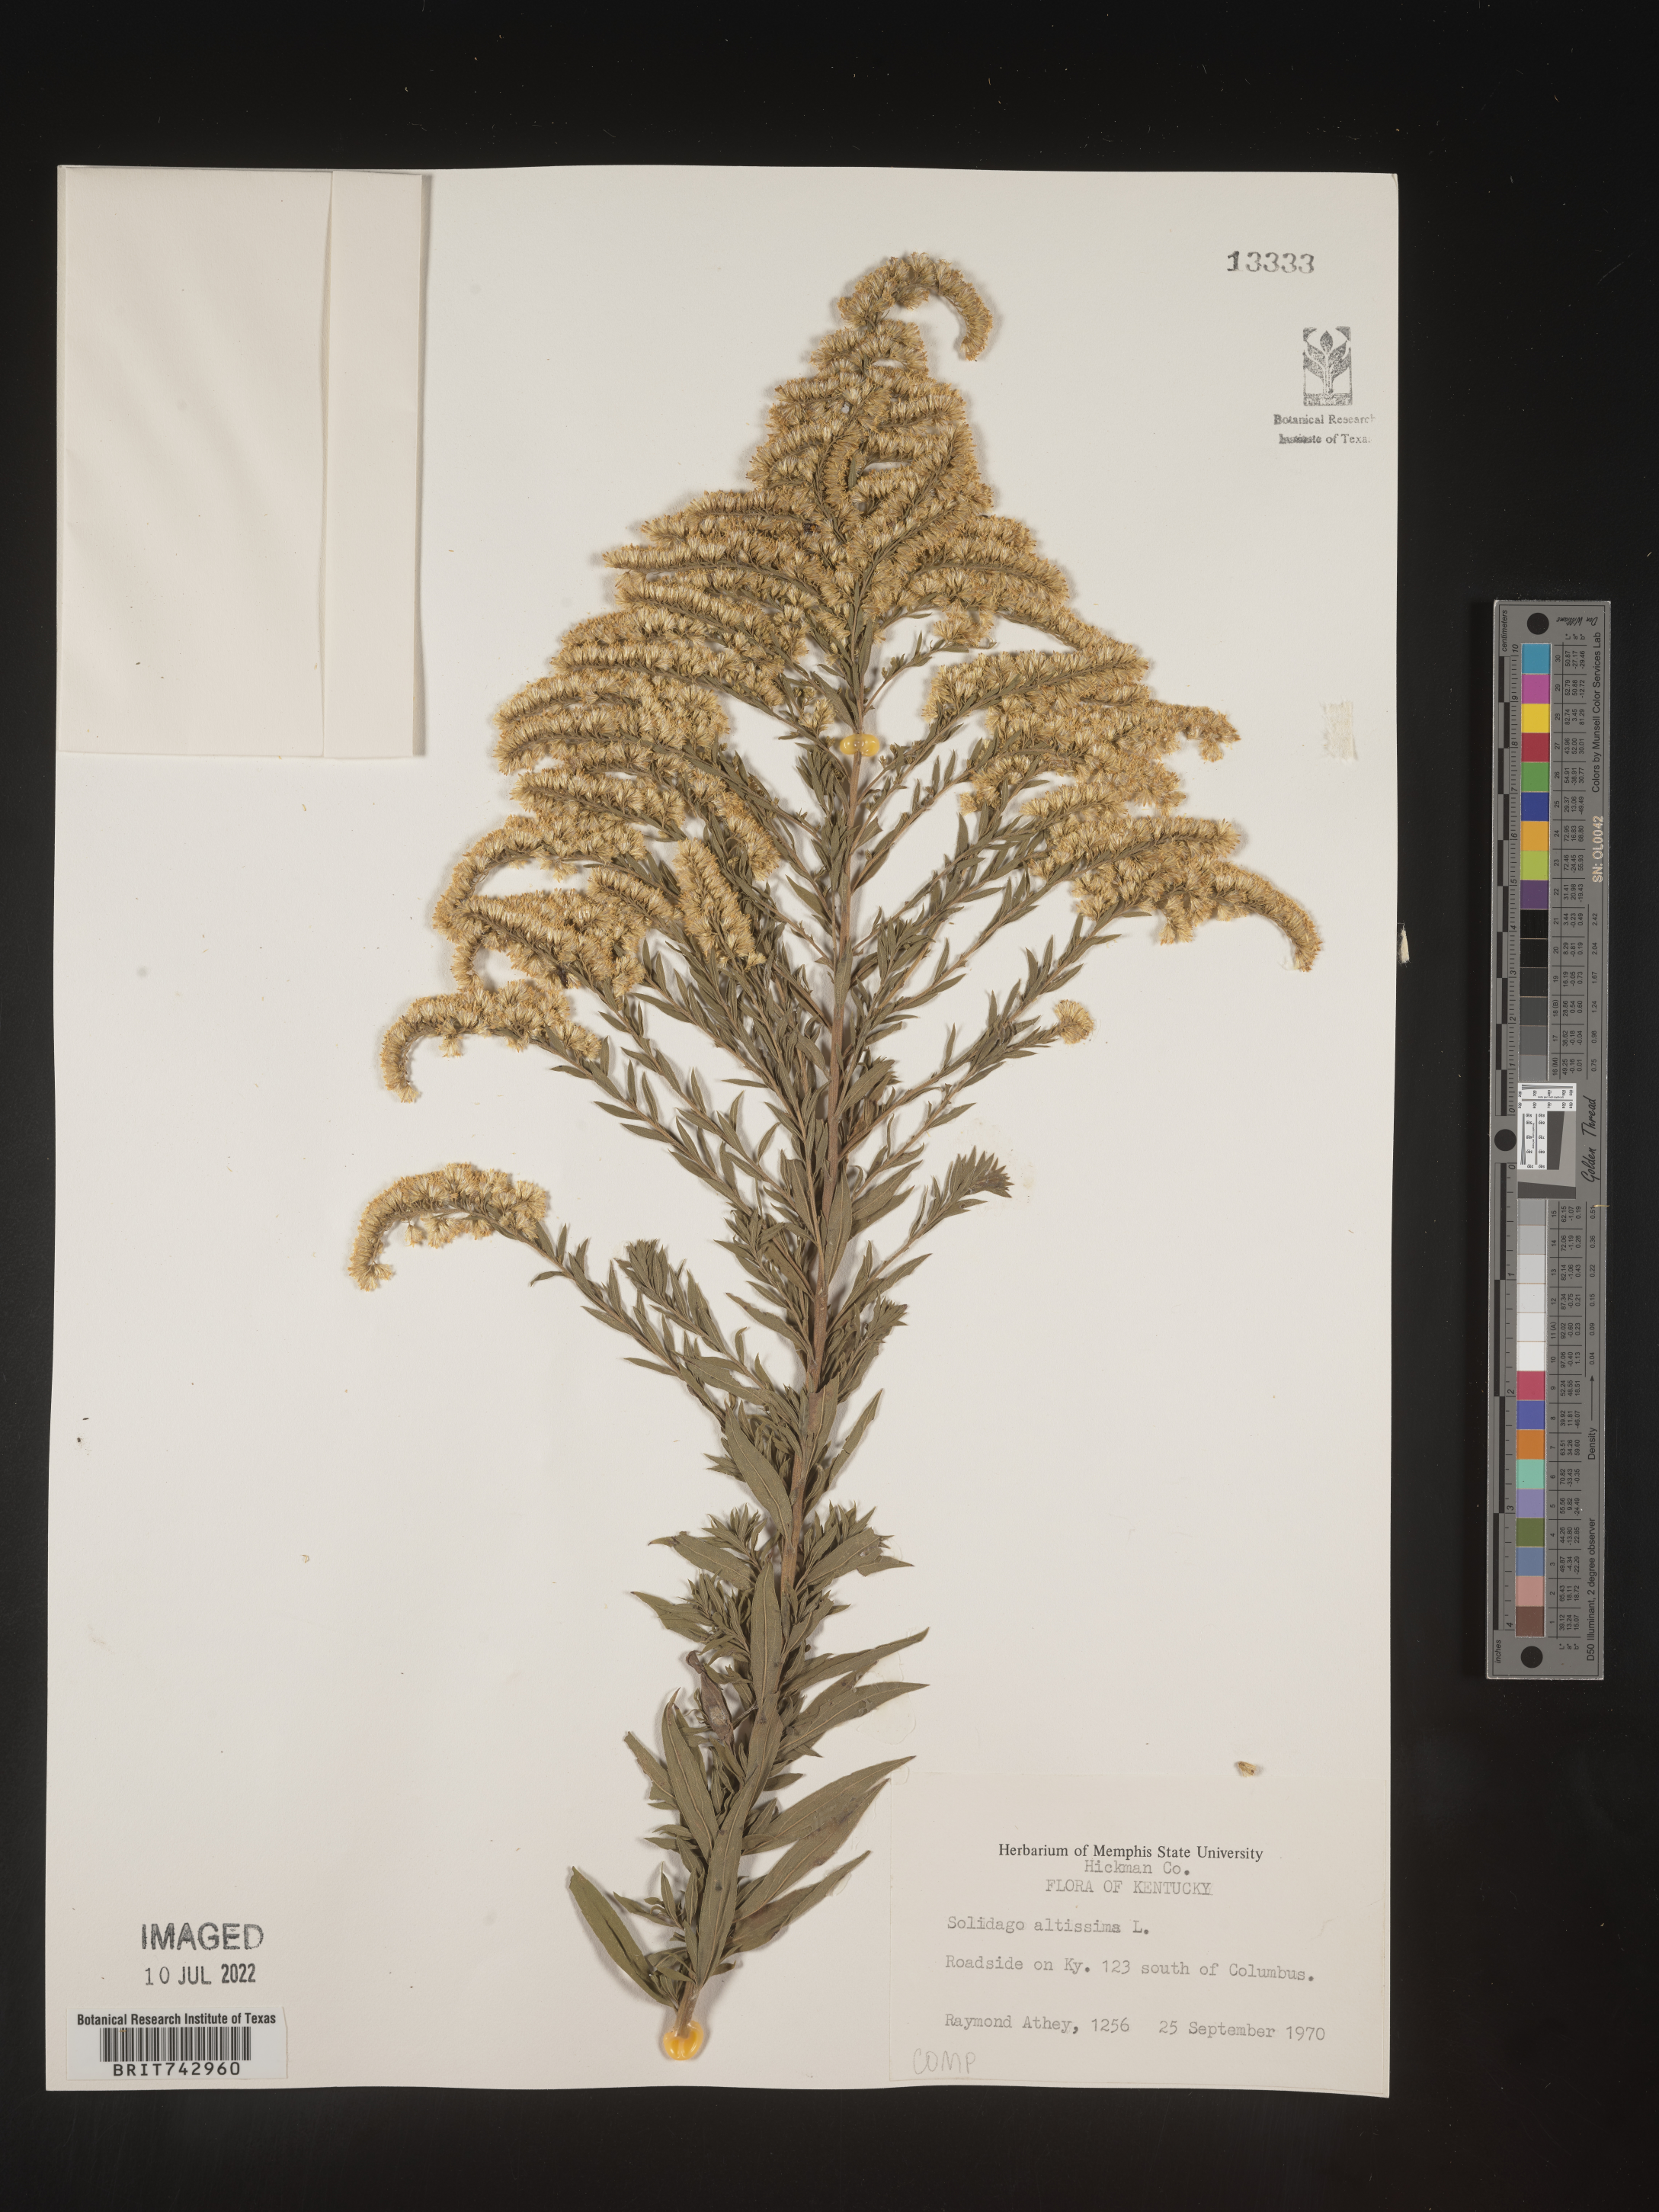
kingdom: Plantae
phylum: Tracheophyta
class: Magnoliopsida
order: Asterales
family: Asteraceae
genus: Solidago
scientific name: Solidago altissima
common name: Late goldenrod
